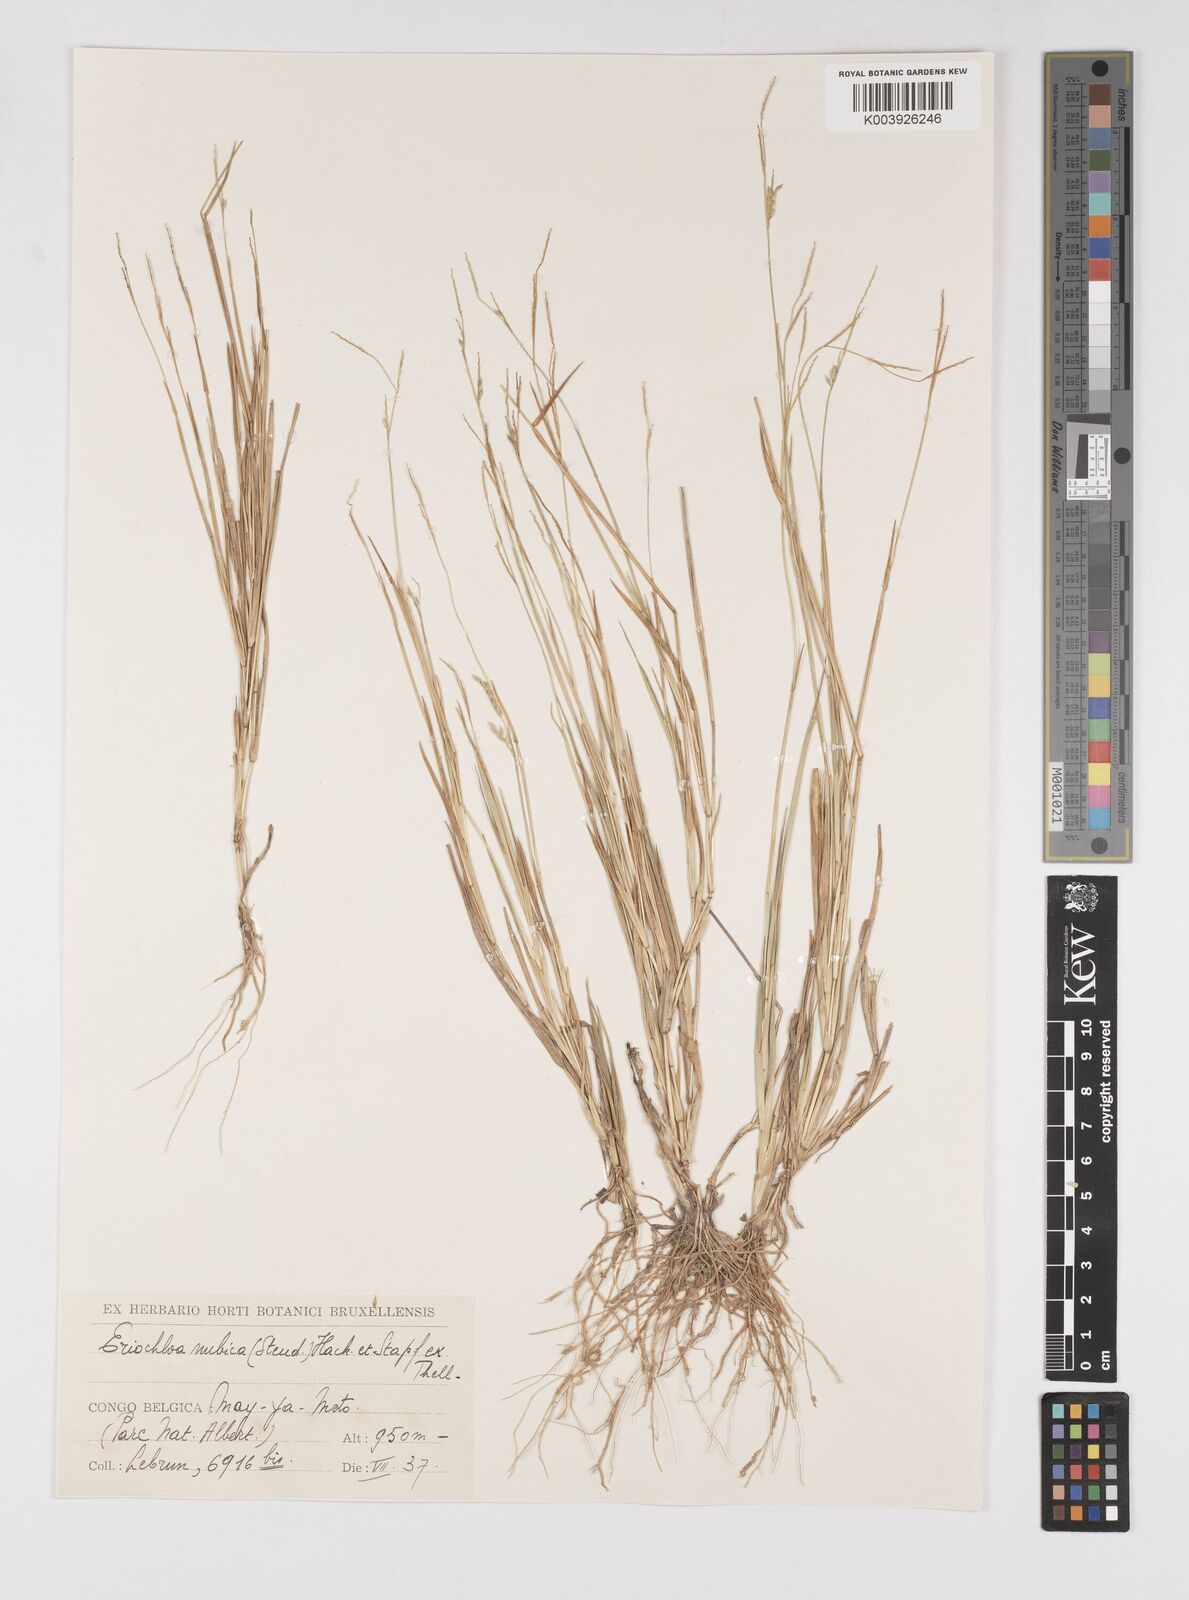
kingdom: Plantae
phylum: Tracheophyta
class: Liliopsida
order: Poales
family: Poaceae
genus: Eriochloa
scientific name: Eriochloa barbatus
